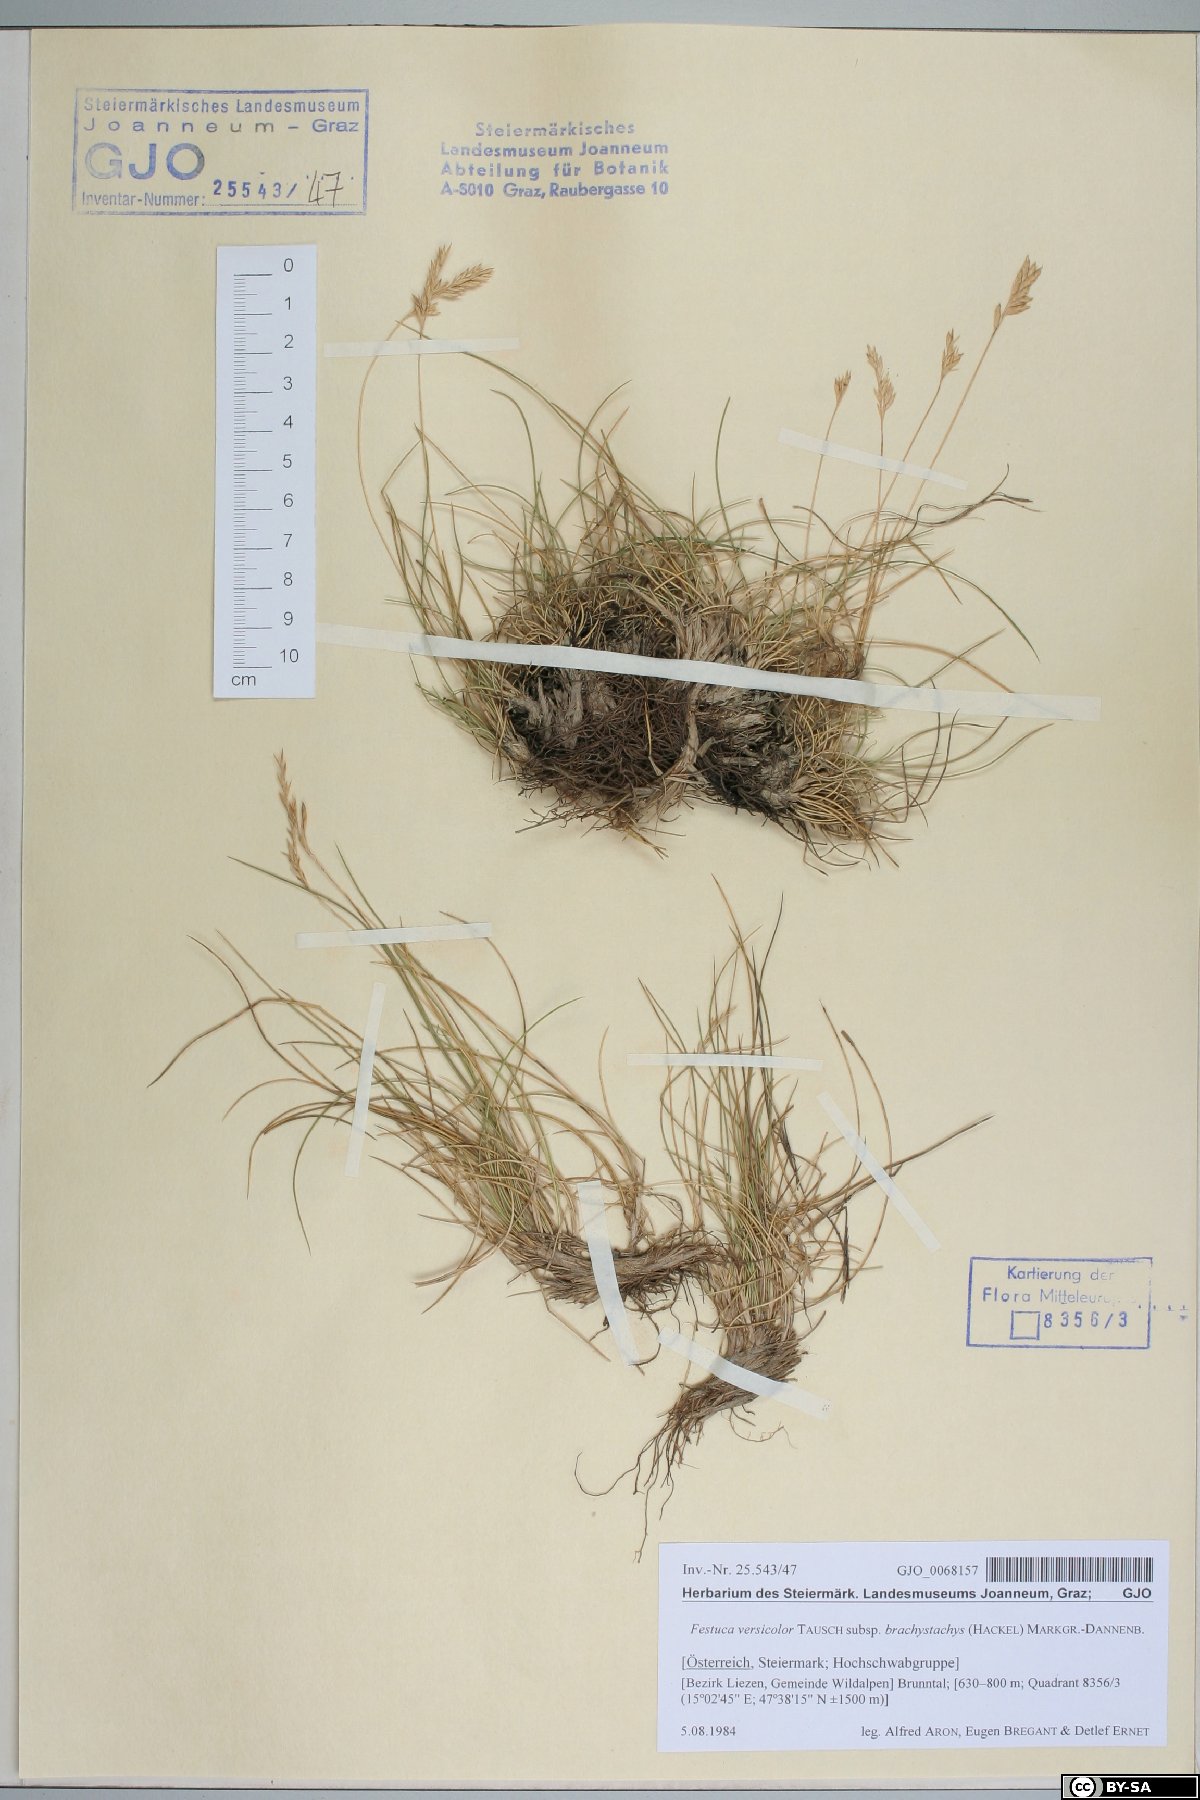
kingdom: Plantae
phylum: Tracheophyta
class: Liliopsida
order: Poales
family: Poaceae
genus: Festuca
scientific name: Festuca varia
